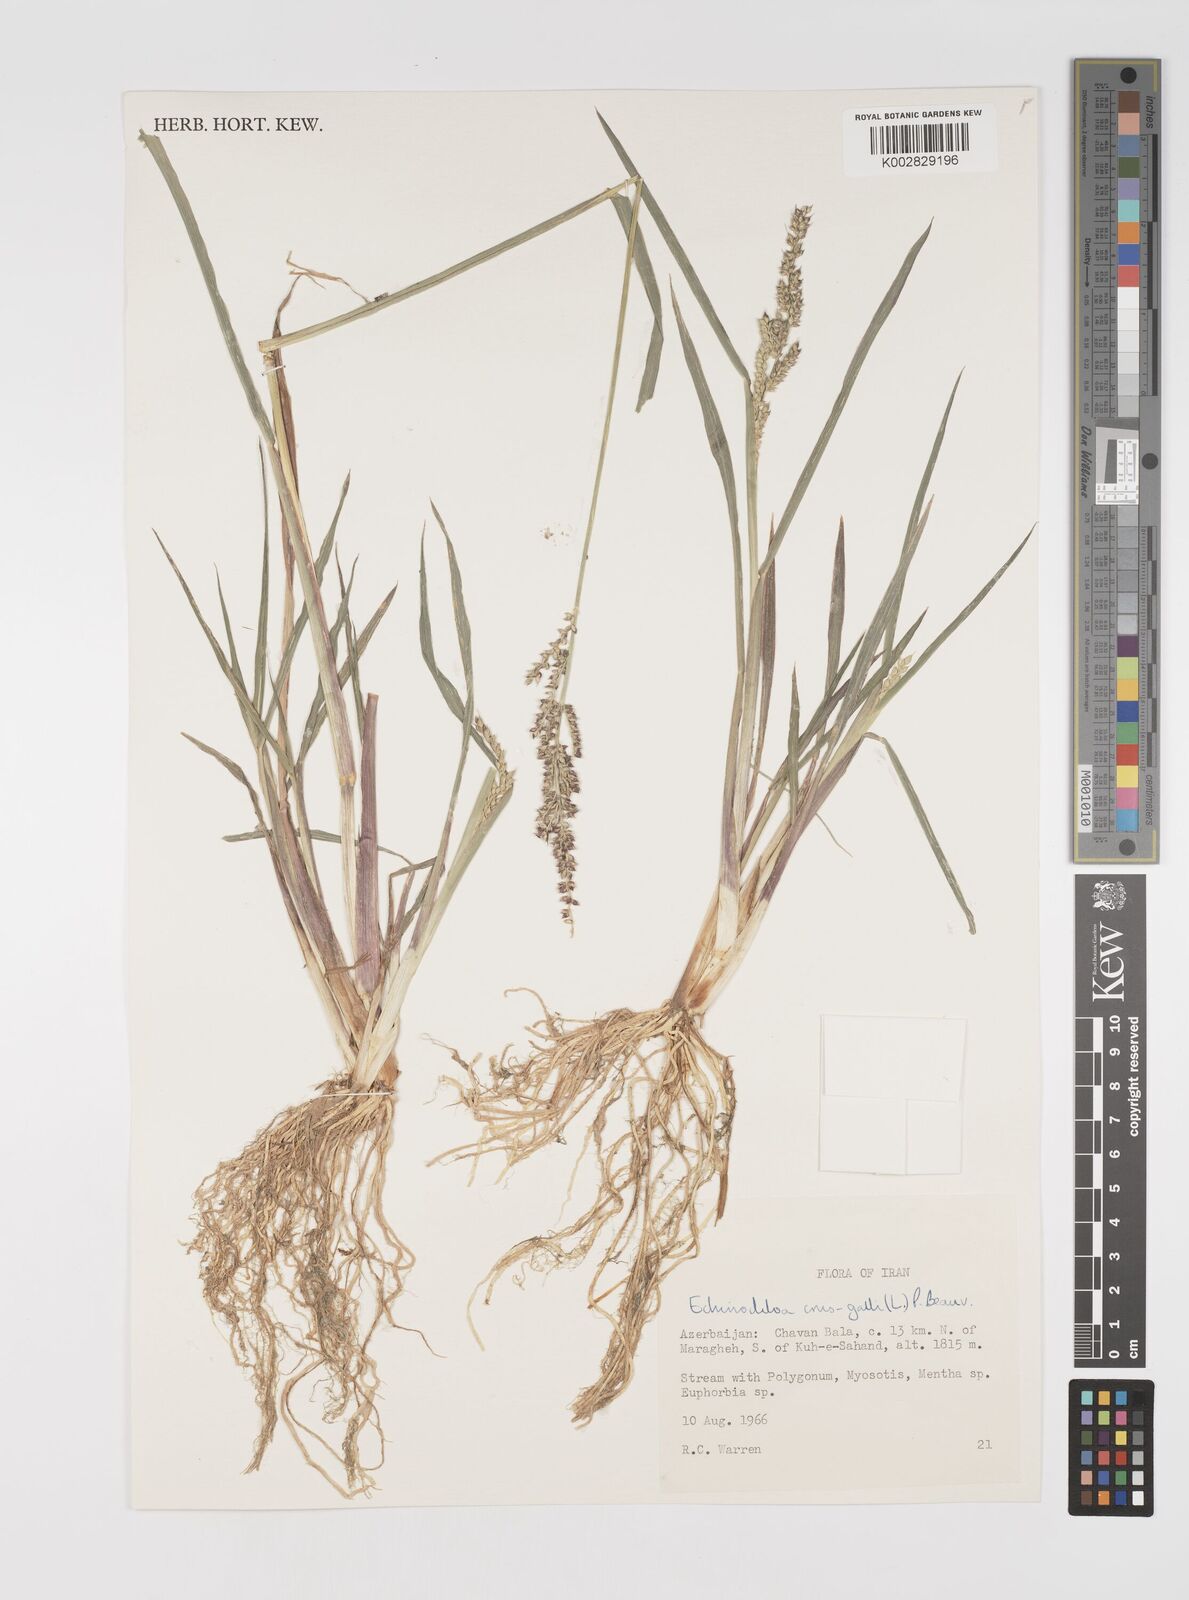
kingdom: Plantae
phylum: Tracheophyta
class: Liliopsida
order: Poales
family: Poaceae
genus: Echinochloa
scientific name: Echinochloa crus-galli
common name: Cockspur
